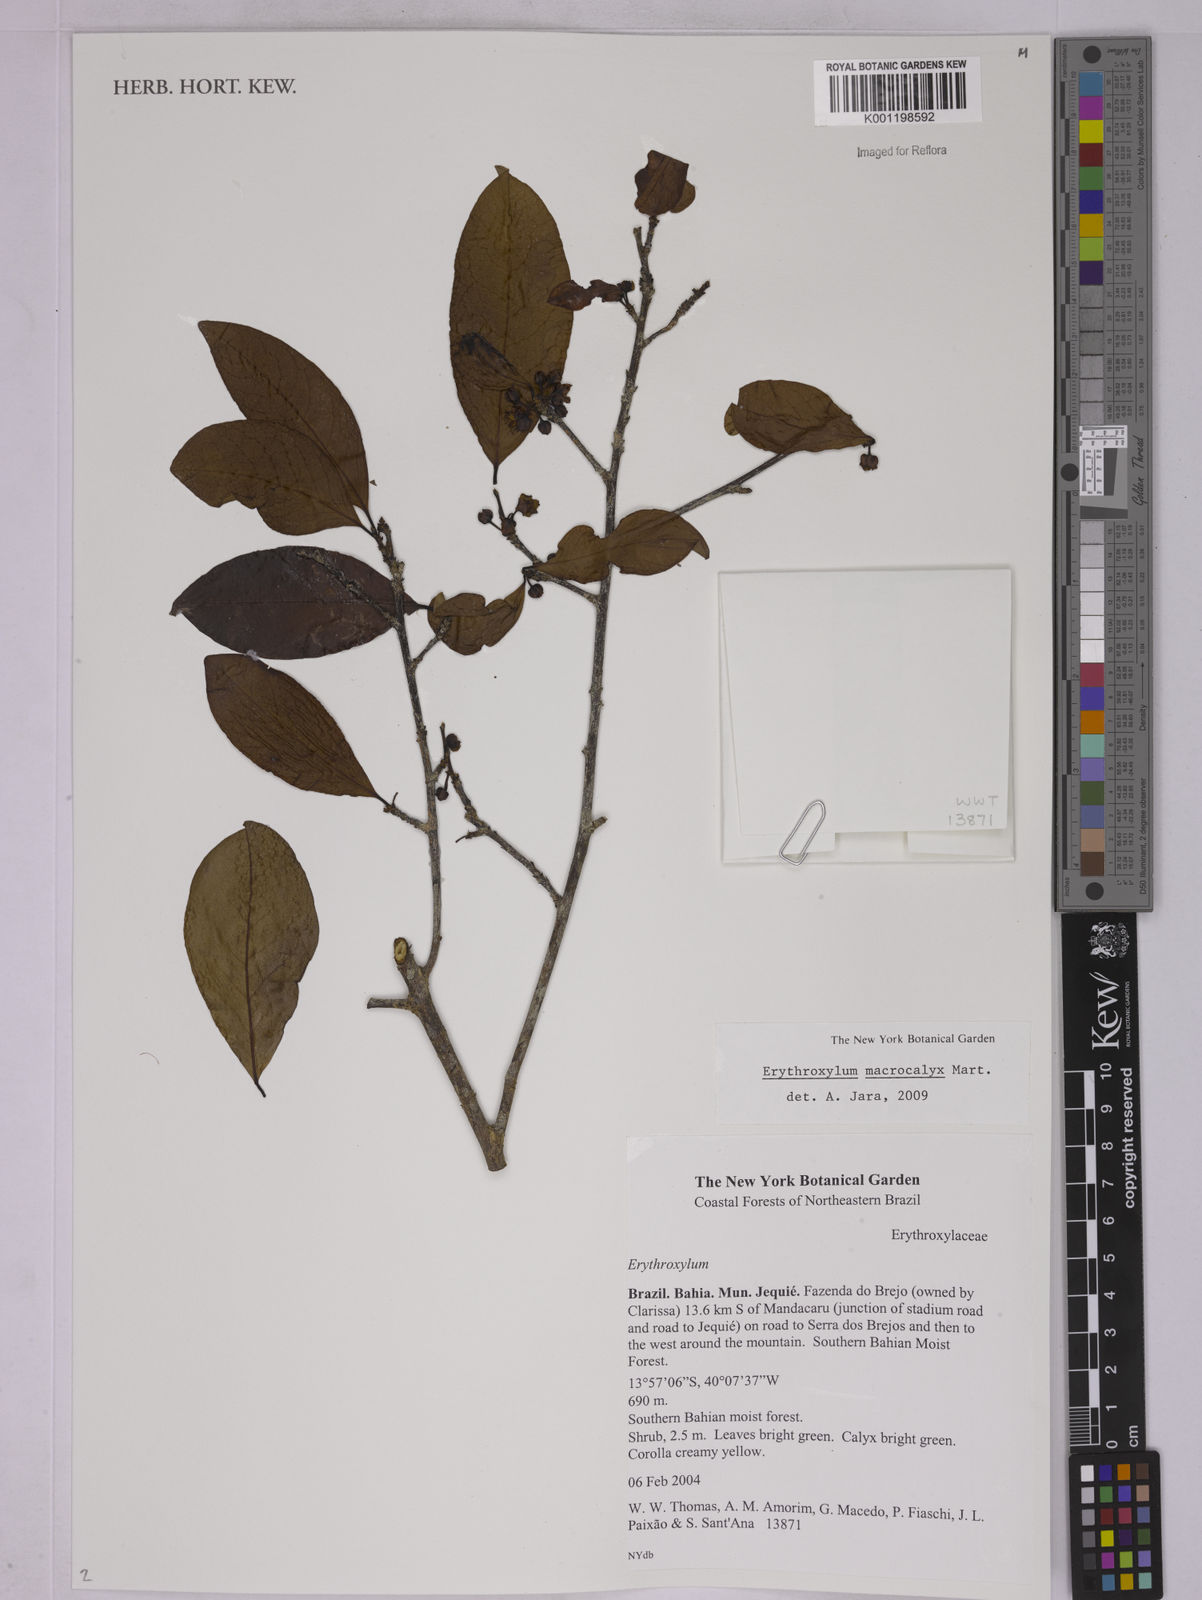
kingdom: Plantae
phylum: Tracheophyta
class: Magnoliopsida
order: Malpighiales
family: Erythroxylaceae
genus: Erythroxylum
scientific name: Erythroxylum macrocalyx
